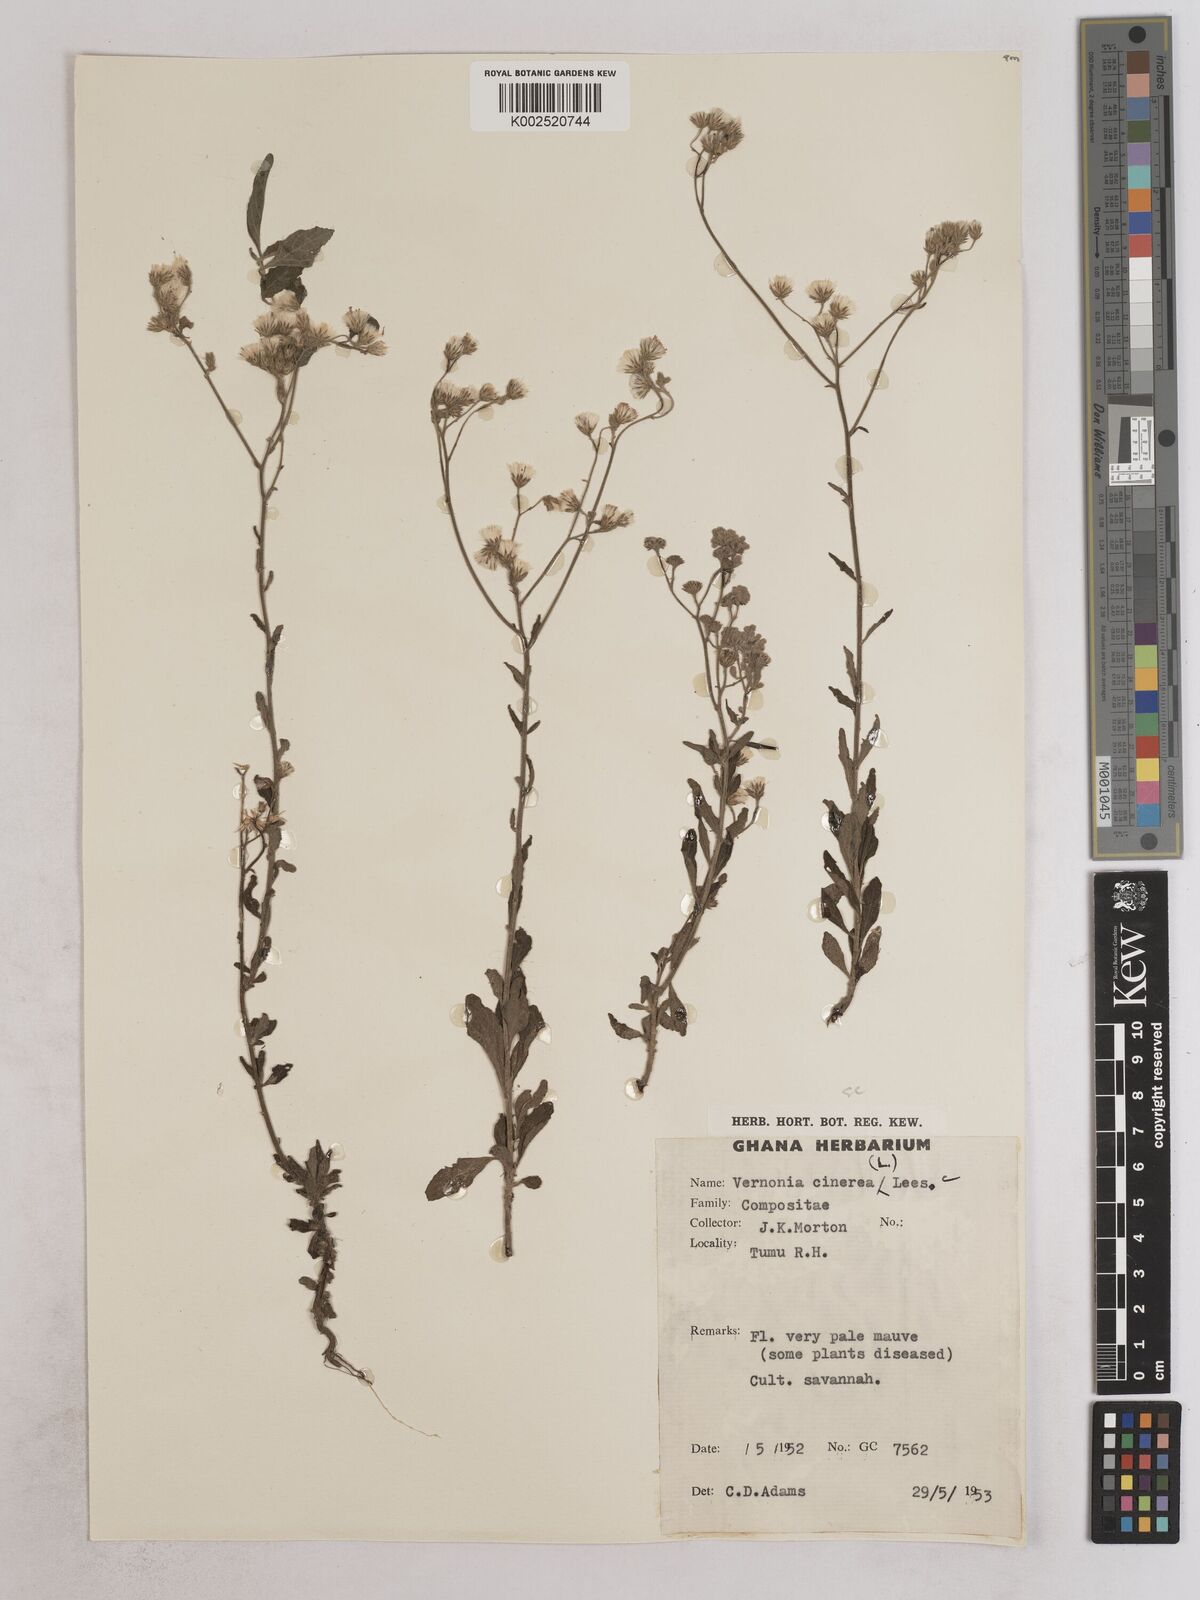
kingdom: Plantae
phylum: Tracheophyta
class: Magnoliopsida
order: Asterales
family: Asteraceae
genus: Cyanthillium
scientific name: Cyanthillium cinereum
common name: Little ironweed
